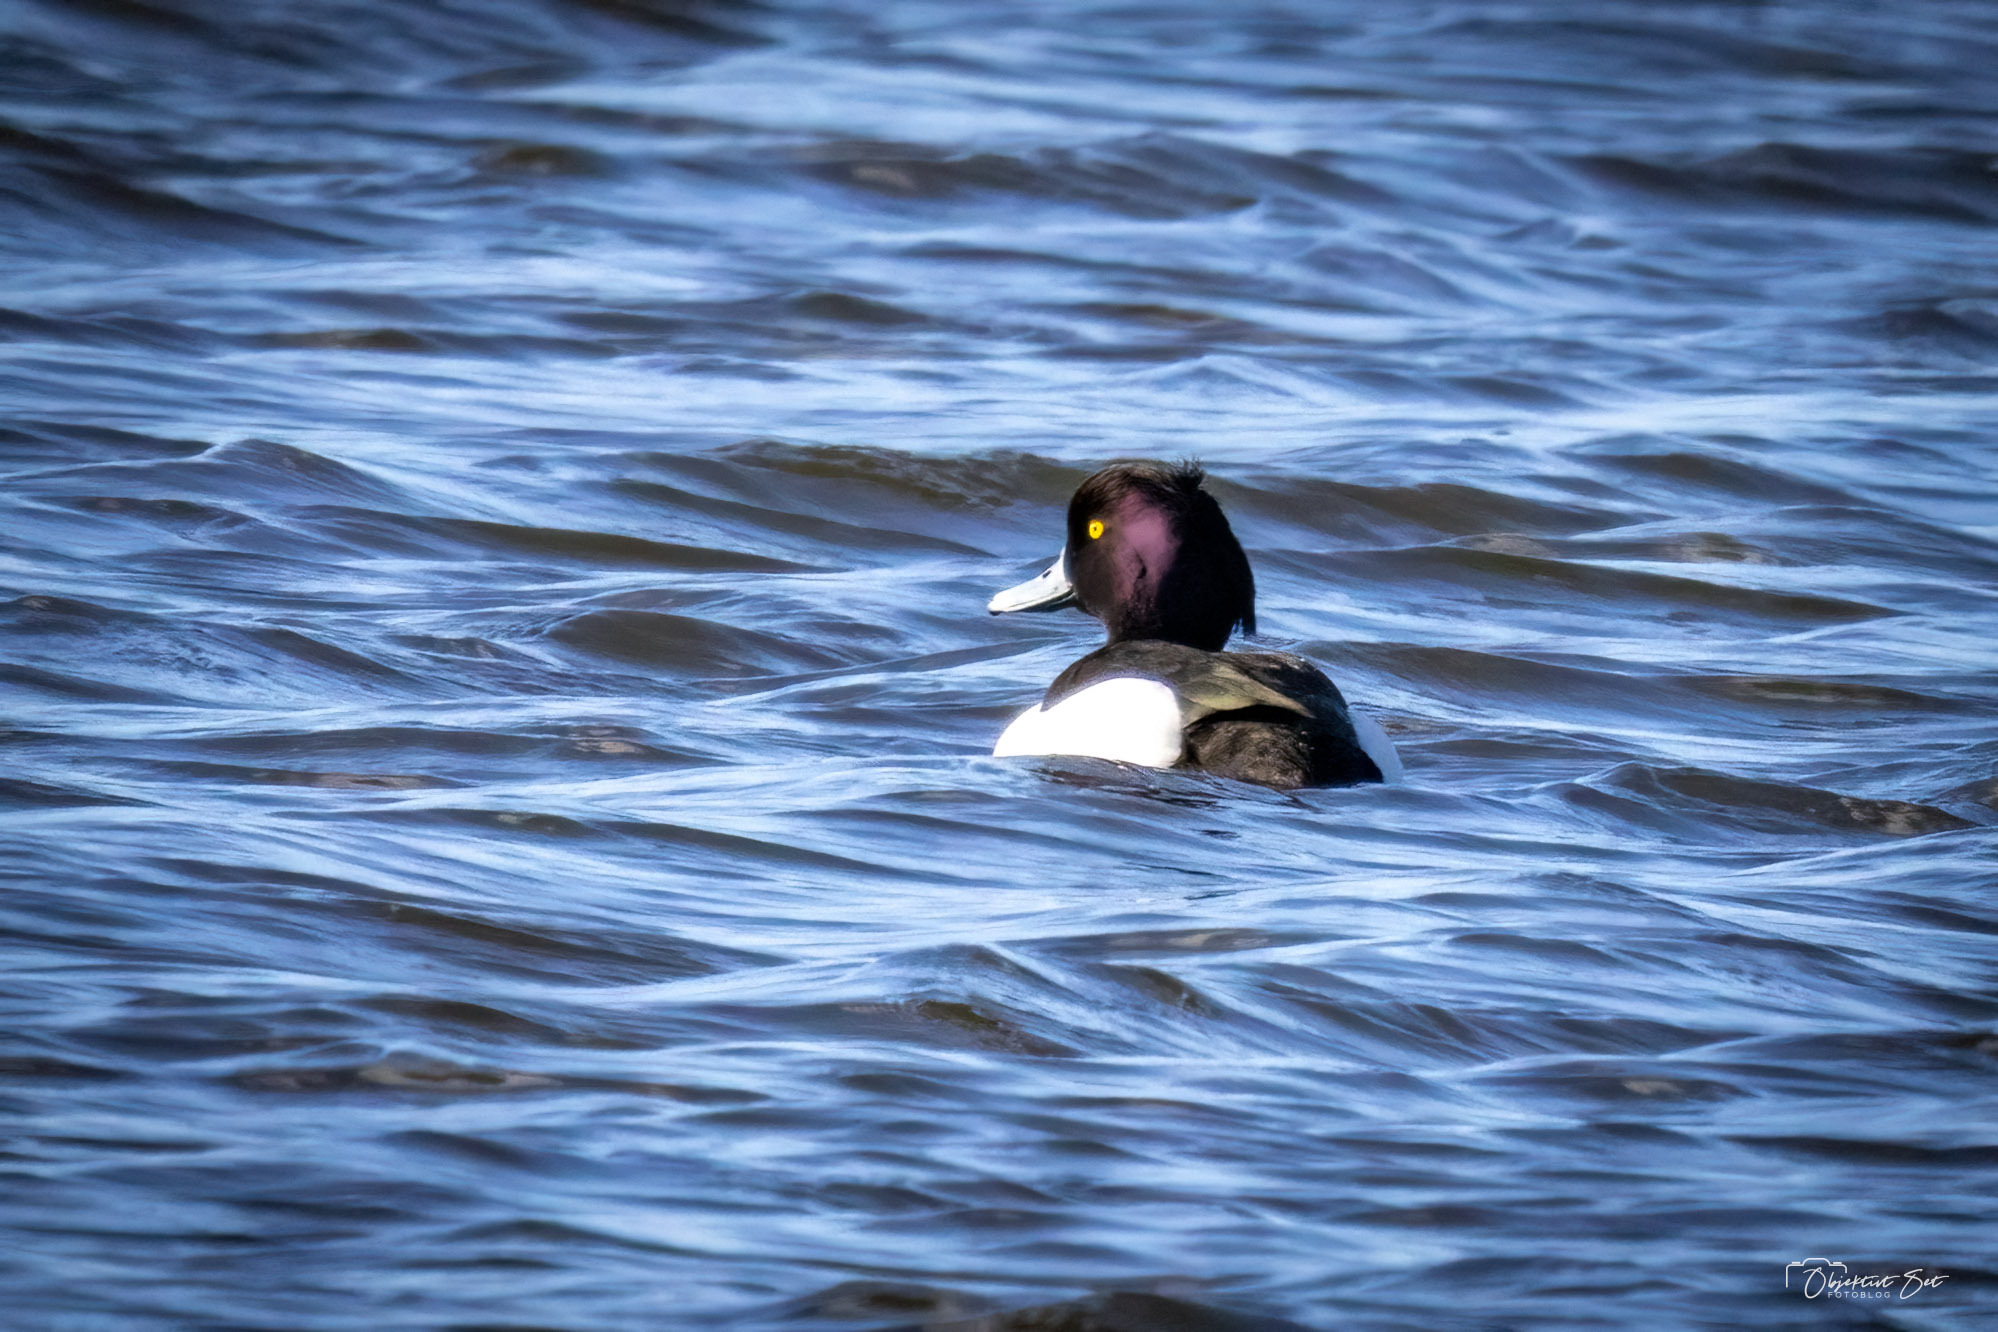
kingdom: Animalia
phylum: Chordata
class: Aves
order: Anseriformes
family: Anatidae
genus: Aythya
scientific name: Aythya fuligula
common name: Troldand
